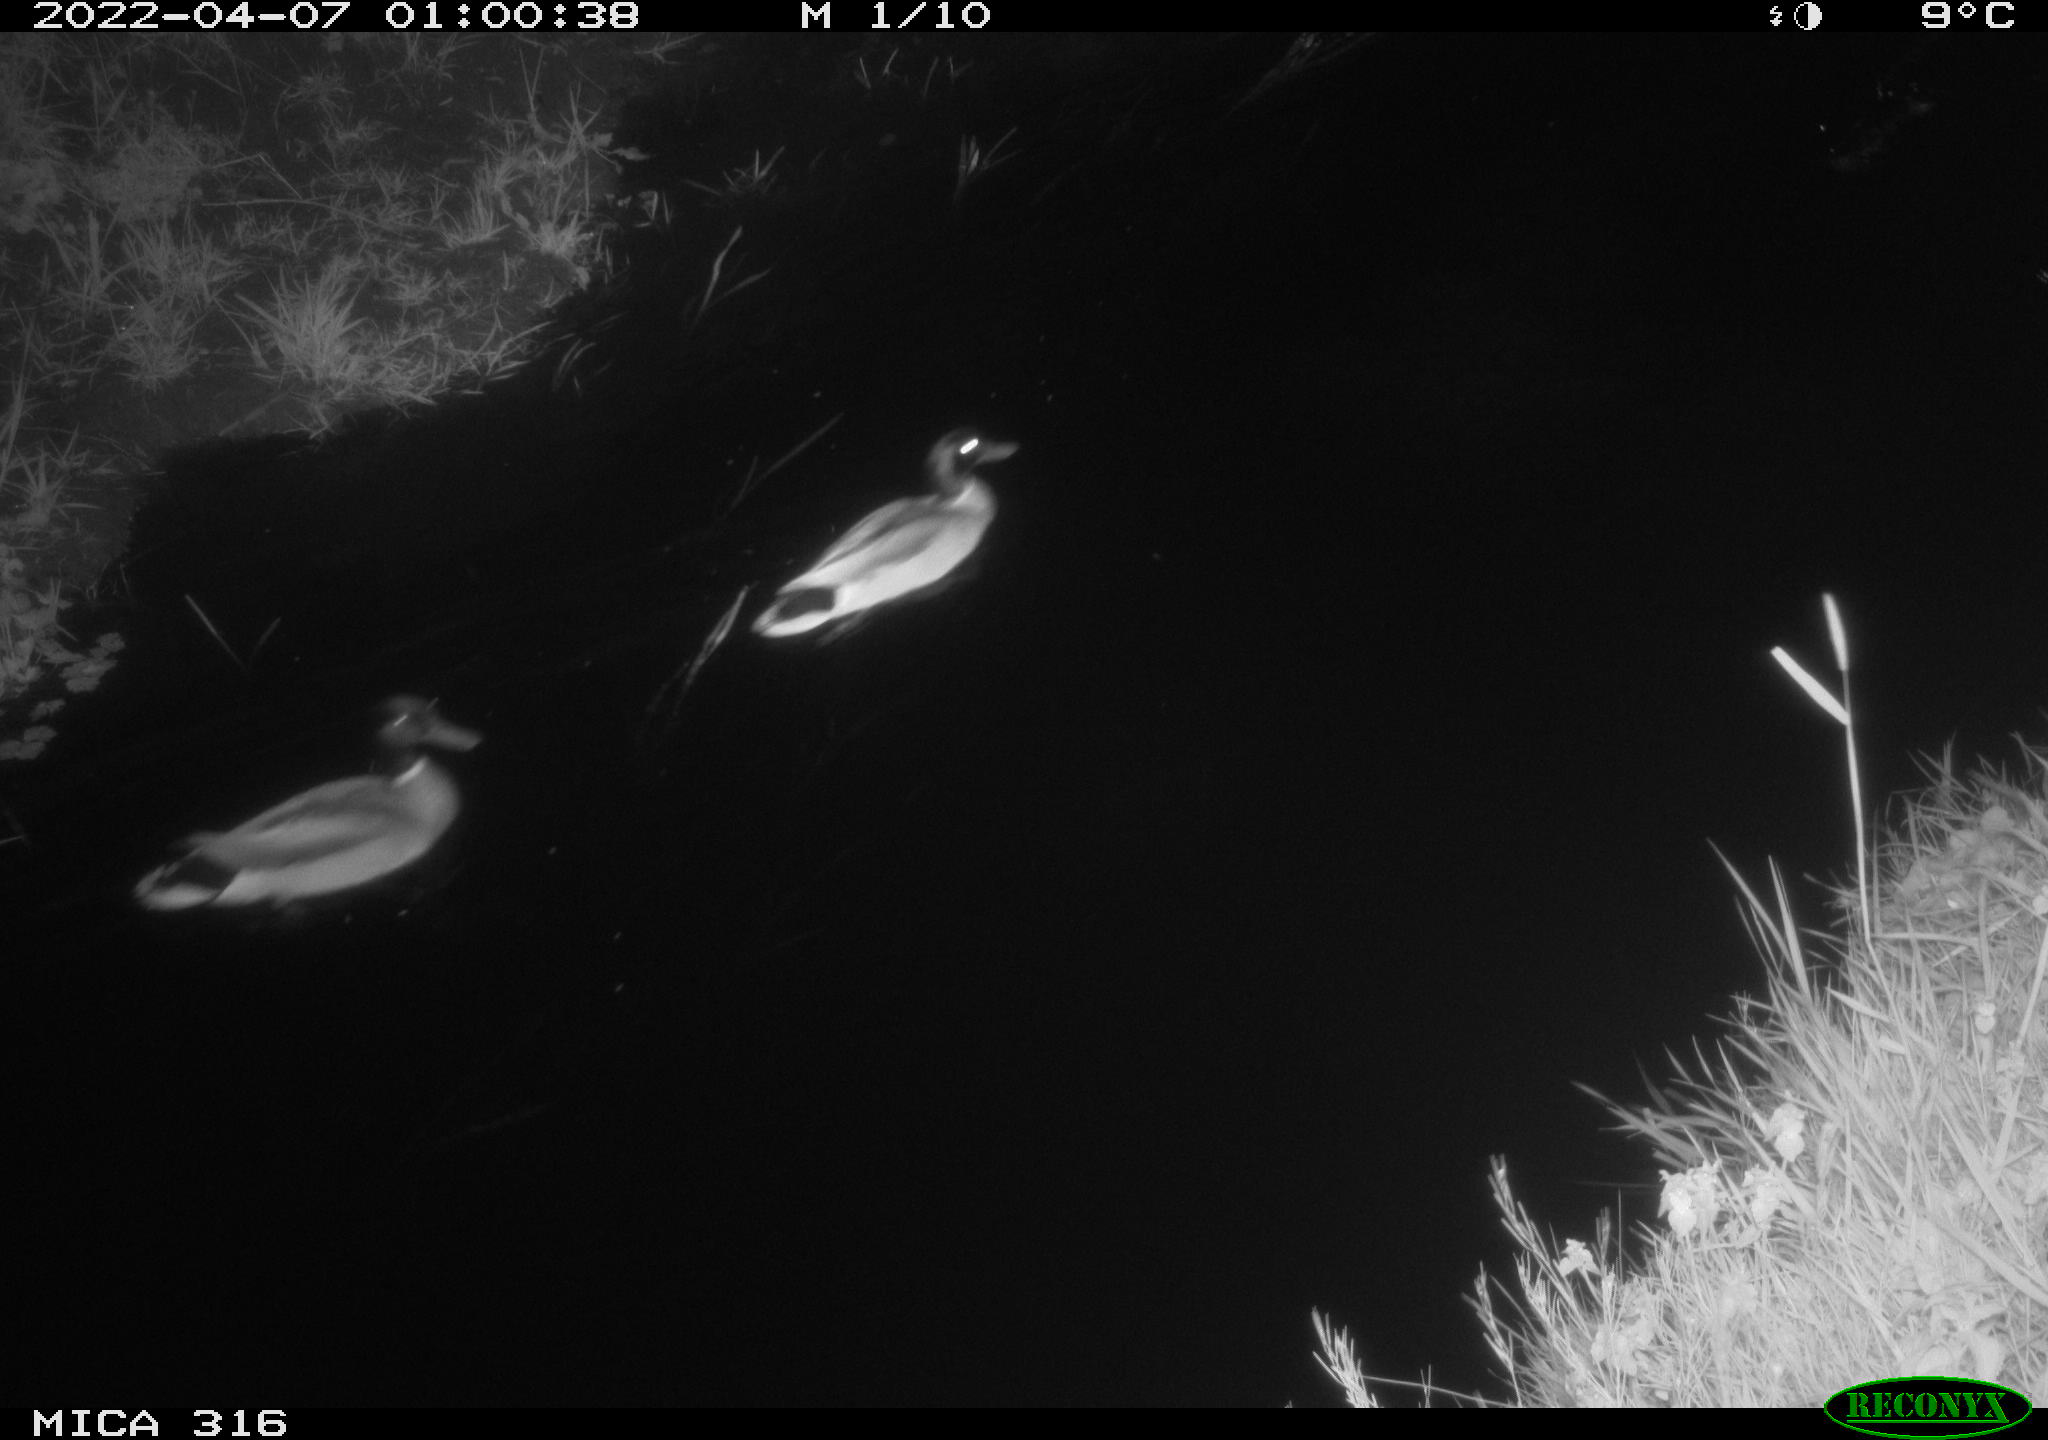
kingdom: Animalia
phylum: Chordata
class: Aves
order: Anseriformes
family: Anatidae
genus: Anas
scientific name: Anas platyrhynchos
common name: Mallard
